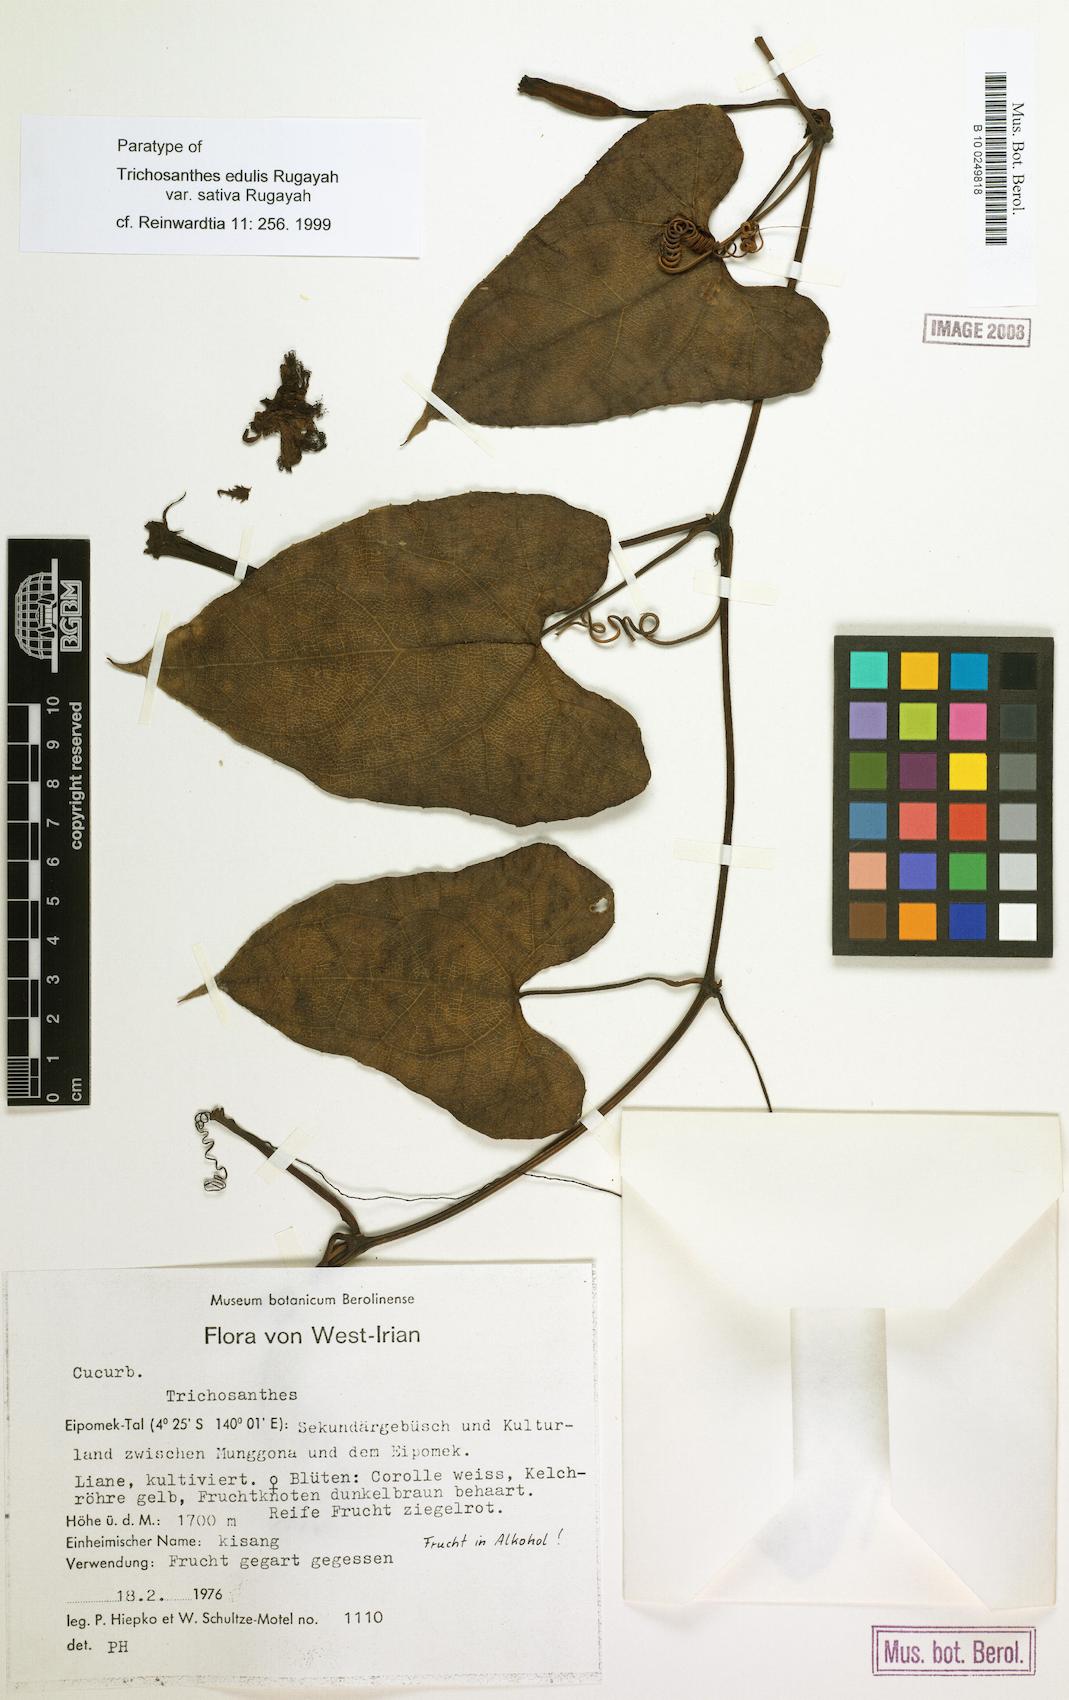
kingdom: Plantae
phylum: Tracheophyta
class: Magnoliopsida
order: Cucurbitales
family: Cucurbitaceae
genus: Trichosanthes
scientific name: Trichosanthes edulis
